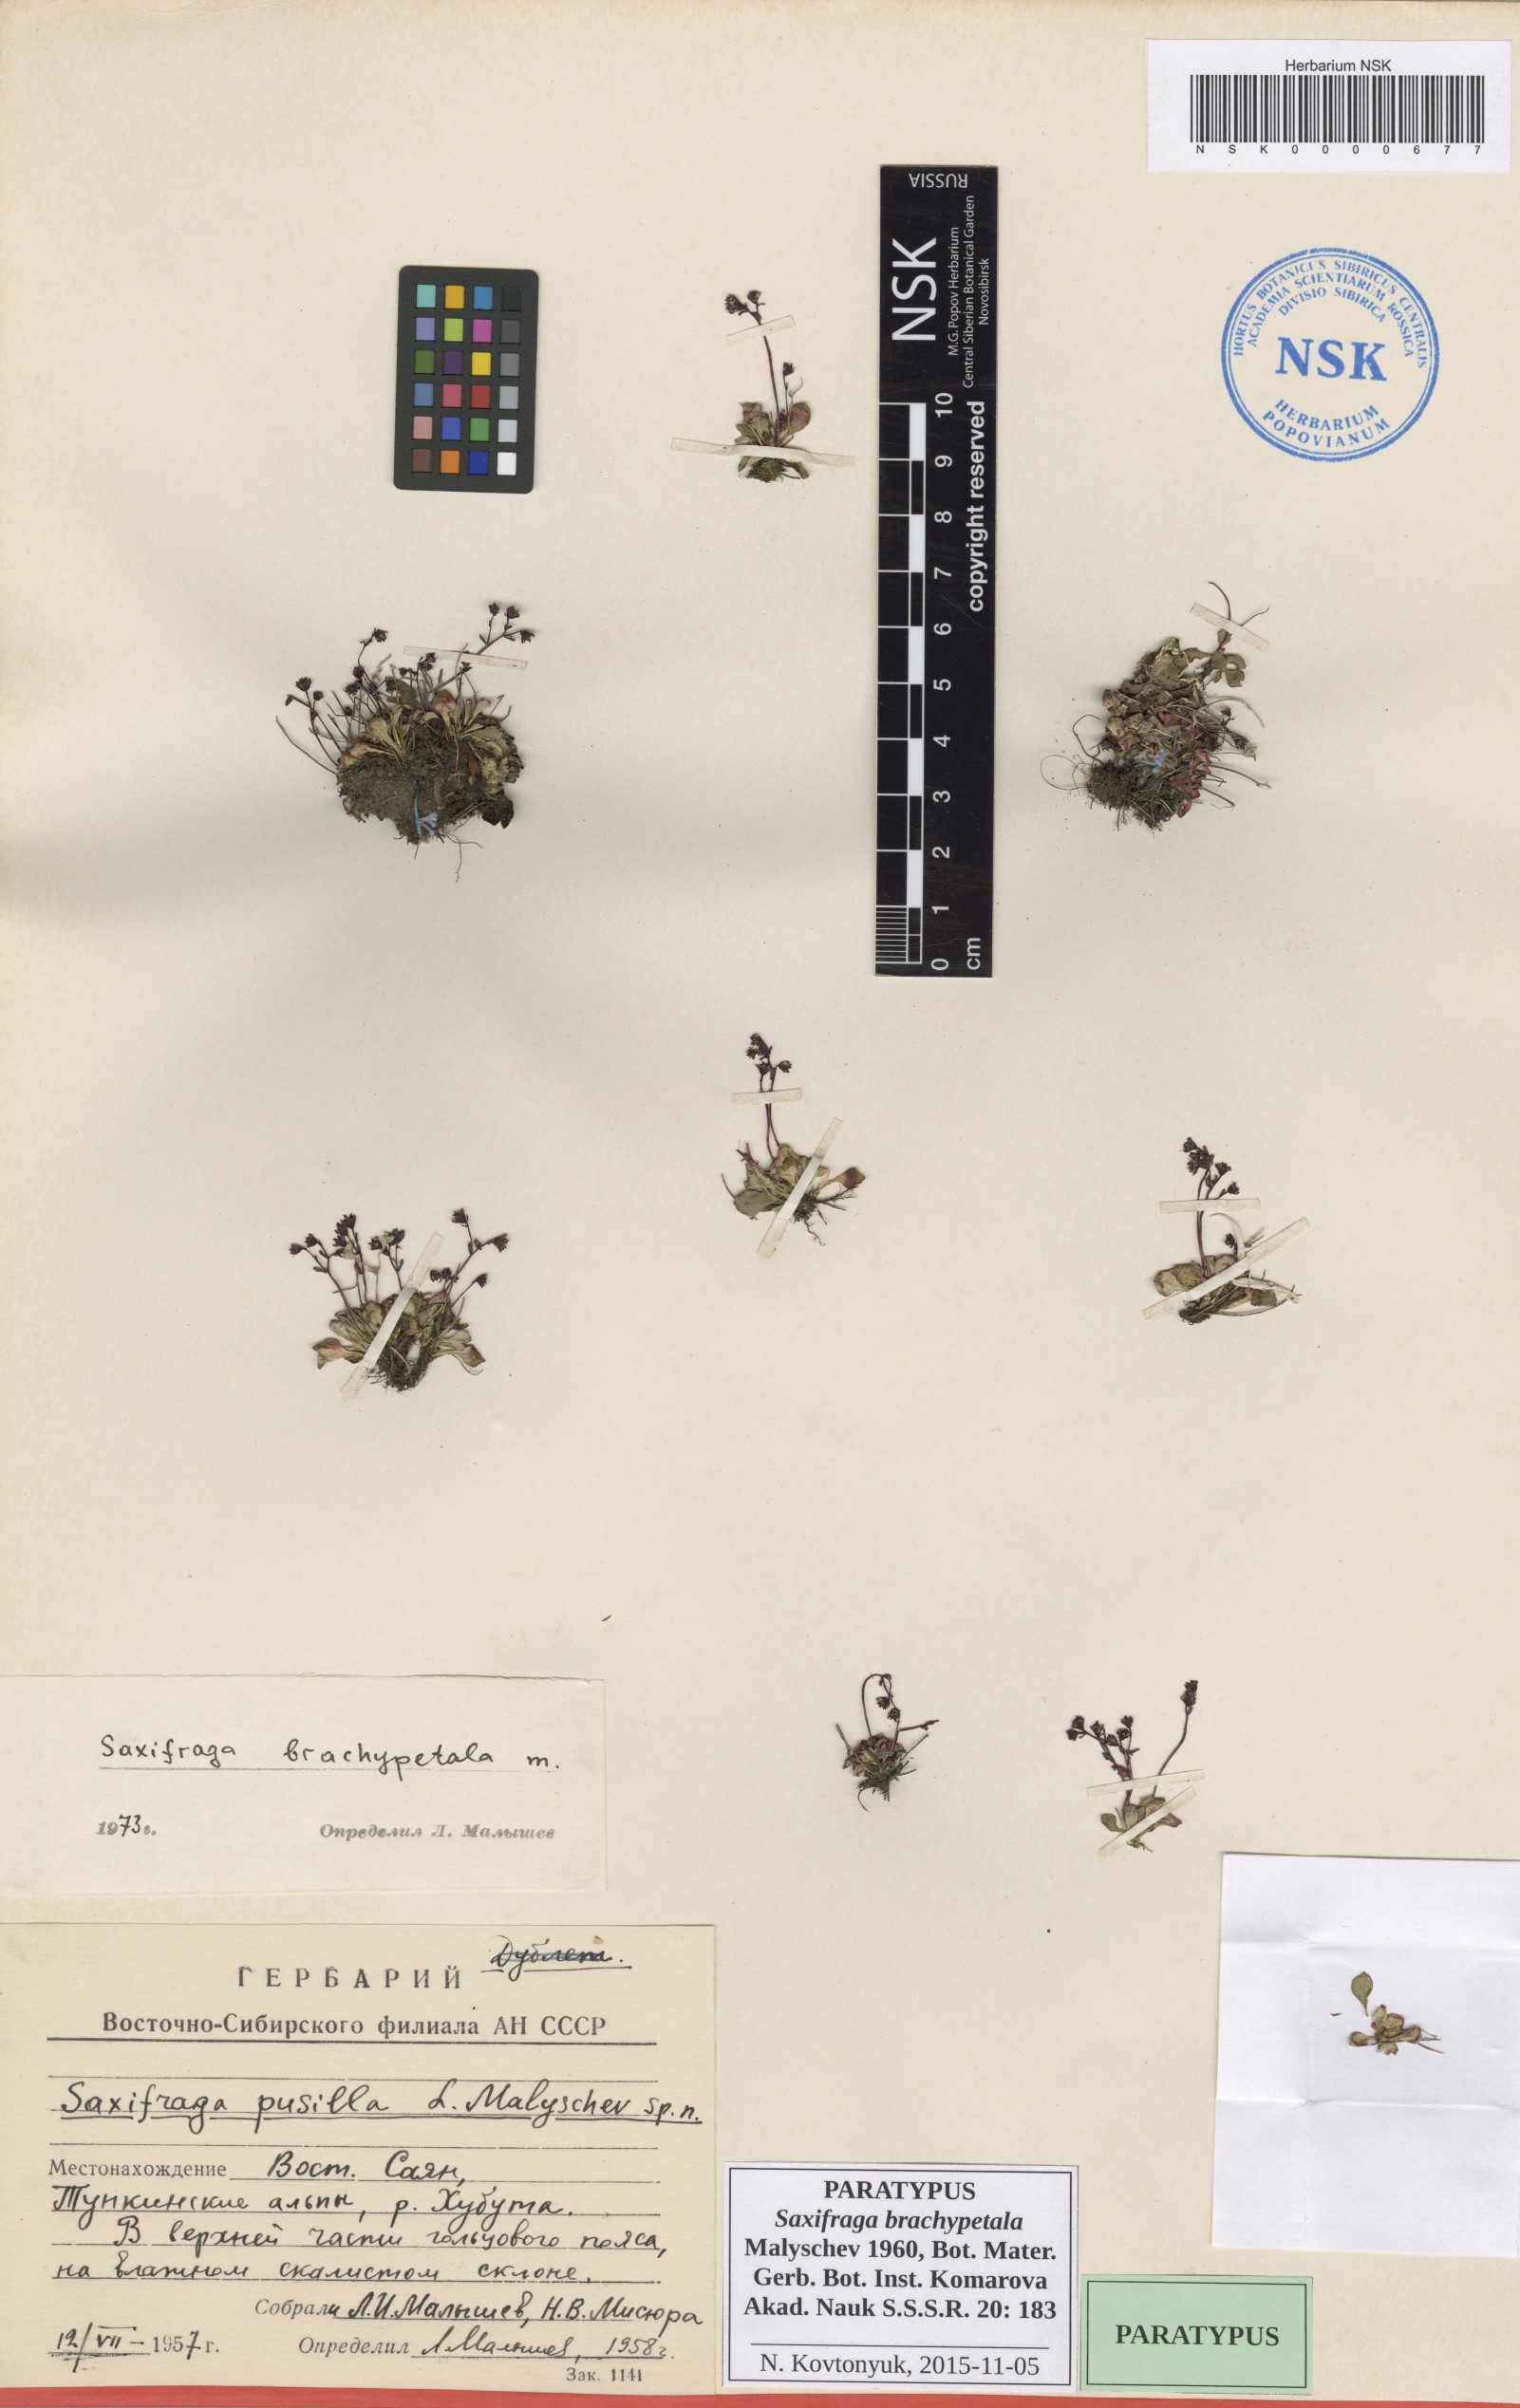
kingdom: Plantae
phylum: Tracheophyta
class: Magnoliopsida
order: Saxifragales
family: Saxifragaceae
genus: Micranthes
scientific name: Micranthes brachypetala
